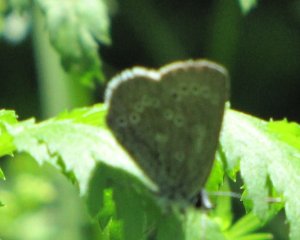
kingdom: Animalia
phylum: Arthropoda
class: Insecta
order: Lepidoptera
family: Lycaenidae
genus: Glaucopsyche
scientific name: Glaucopsyche lygdamus
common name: Silvery Blue
